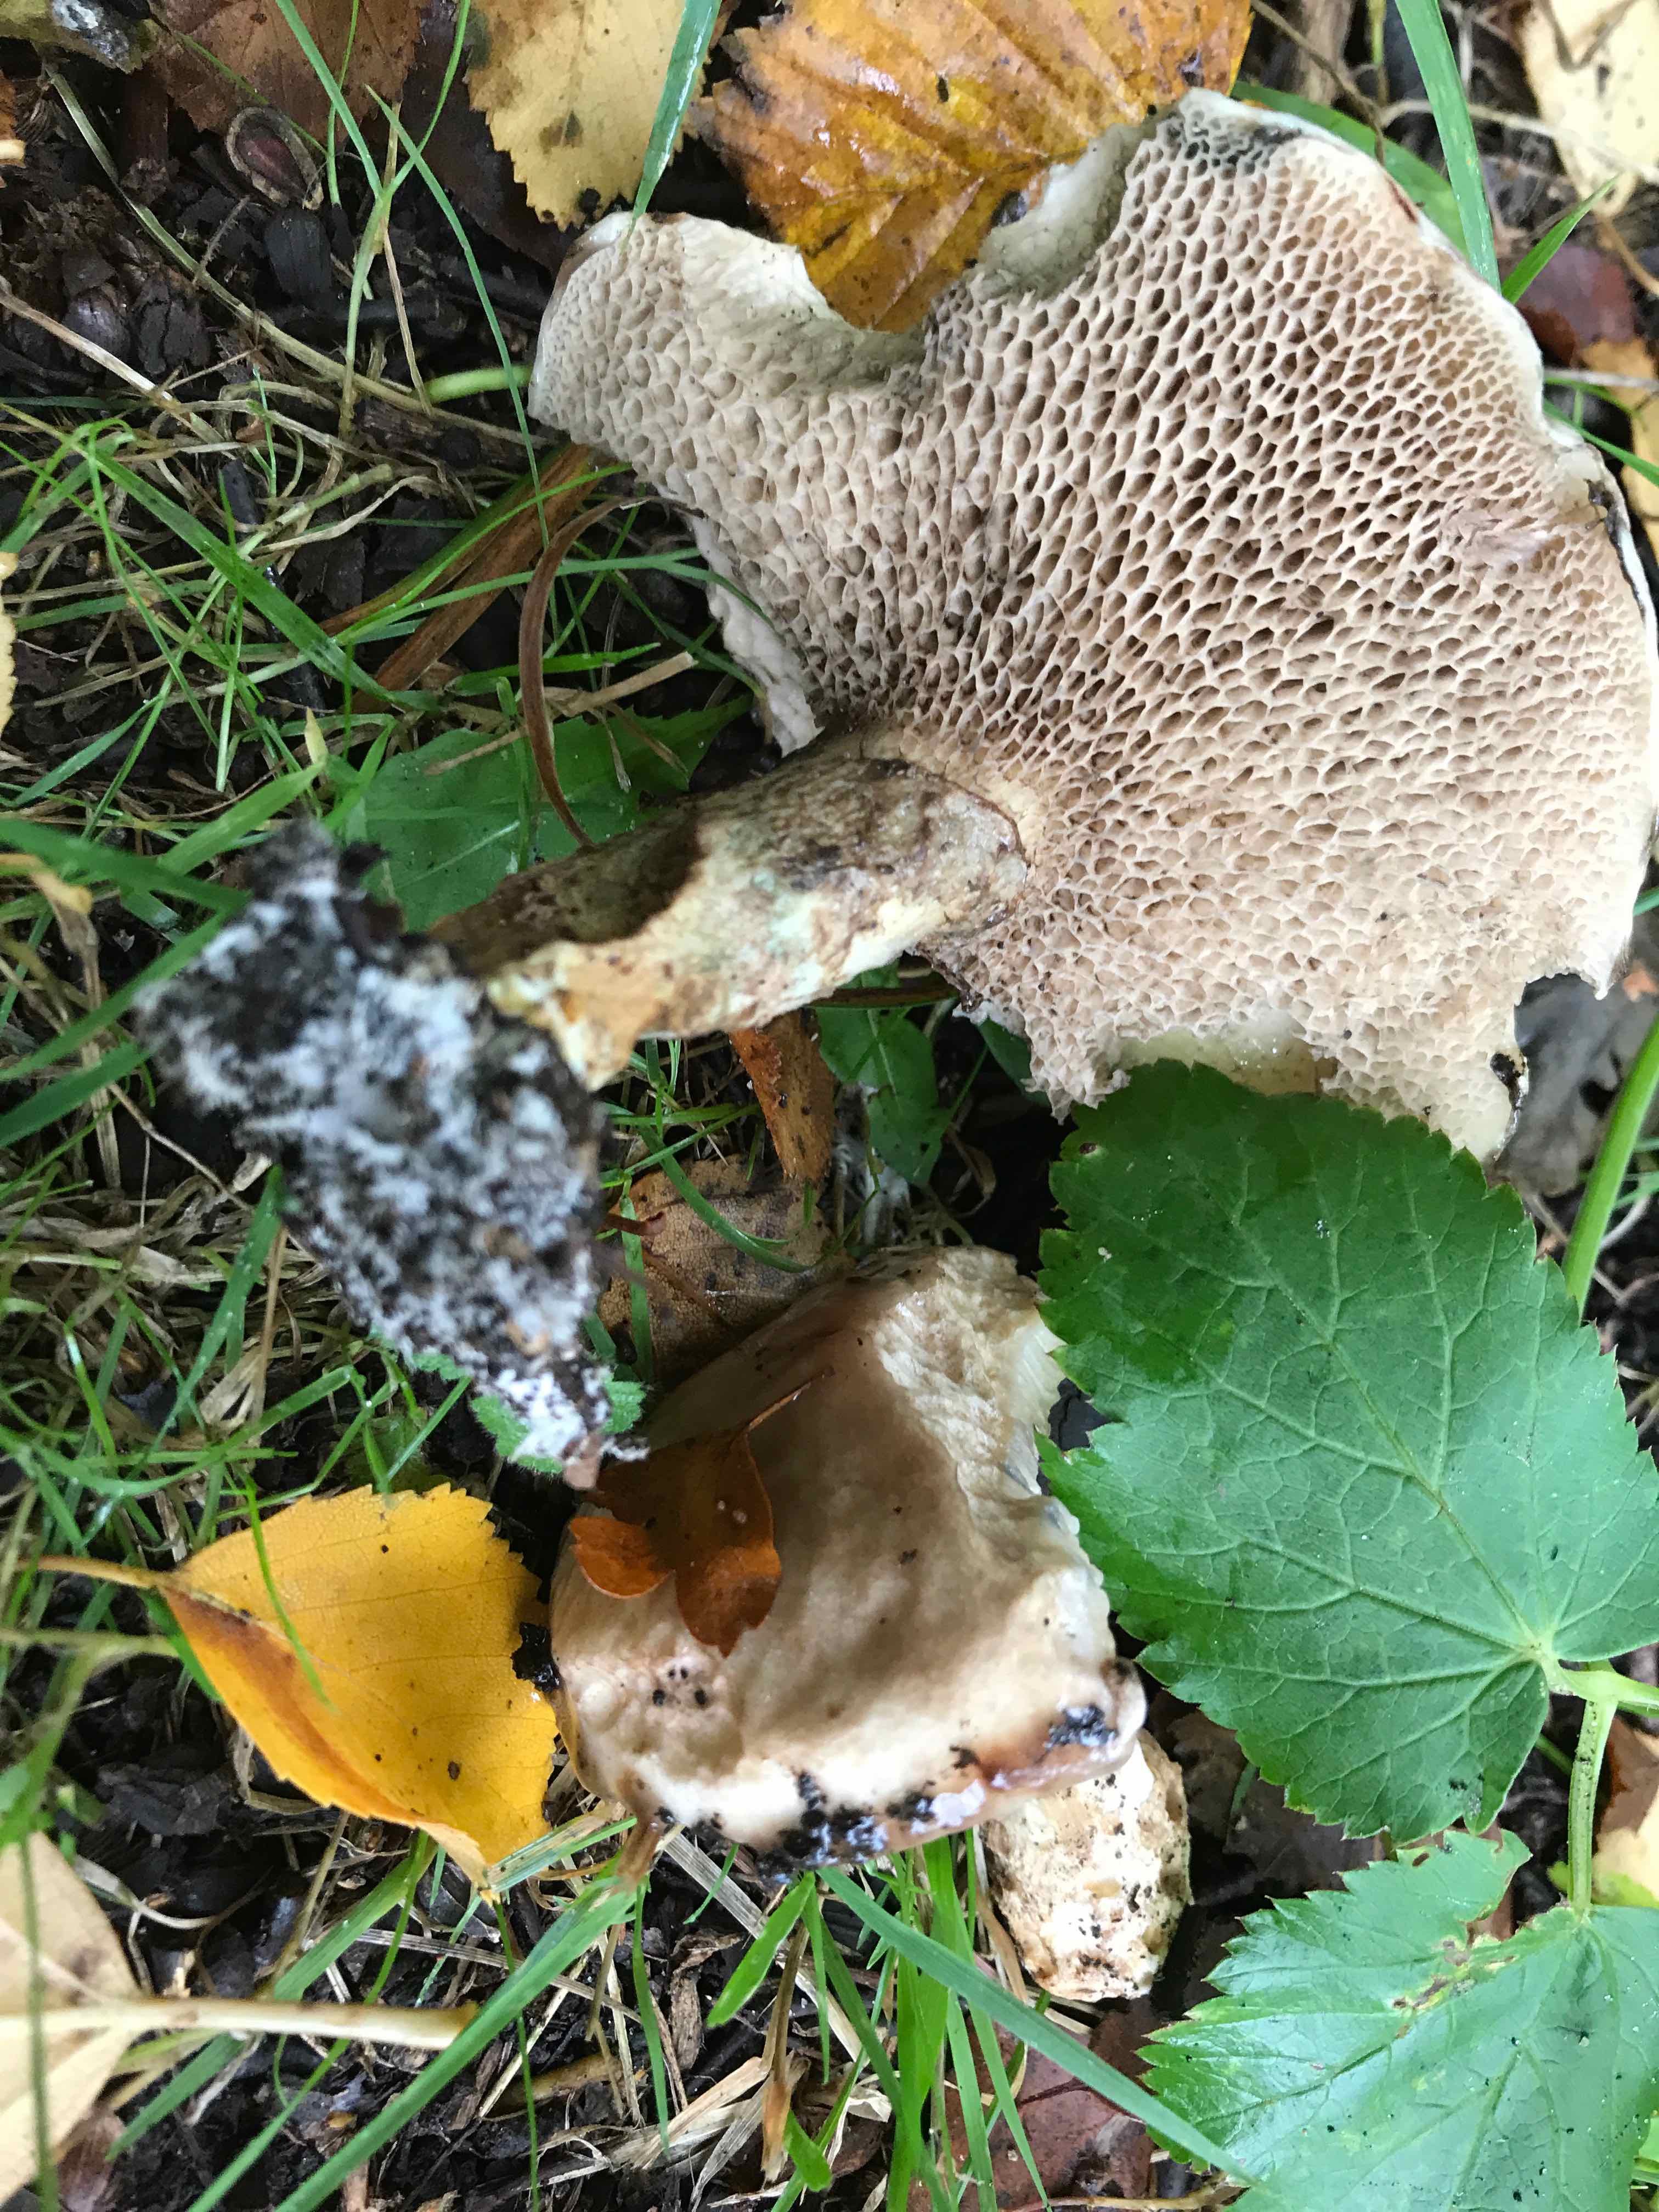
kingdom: Fungi
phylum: Basidiomycota
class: Agaricomycetes
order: Boletales
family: Suillaceae
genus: Suillus
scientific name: Suillus viscidus
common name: olivengrå slimrørhat
